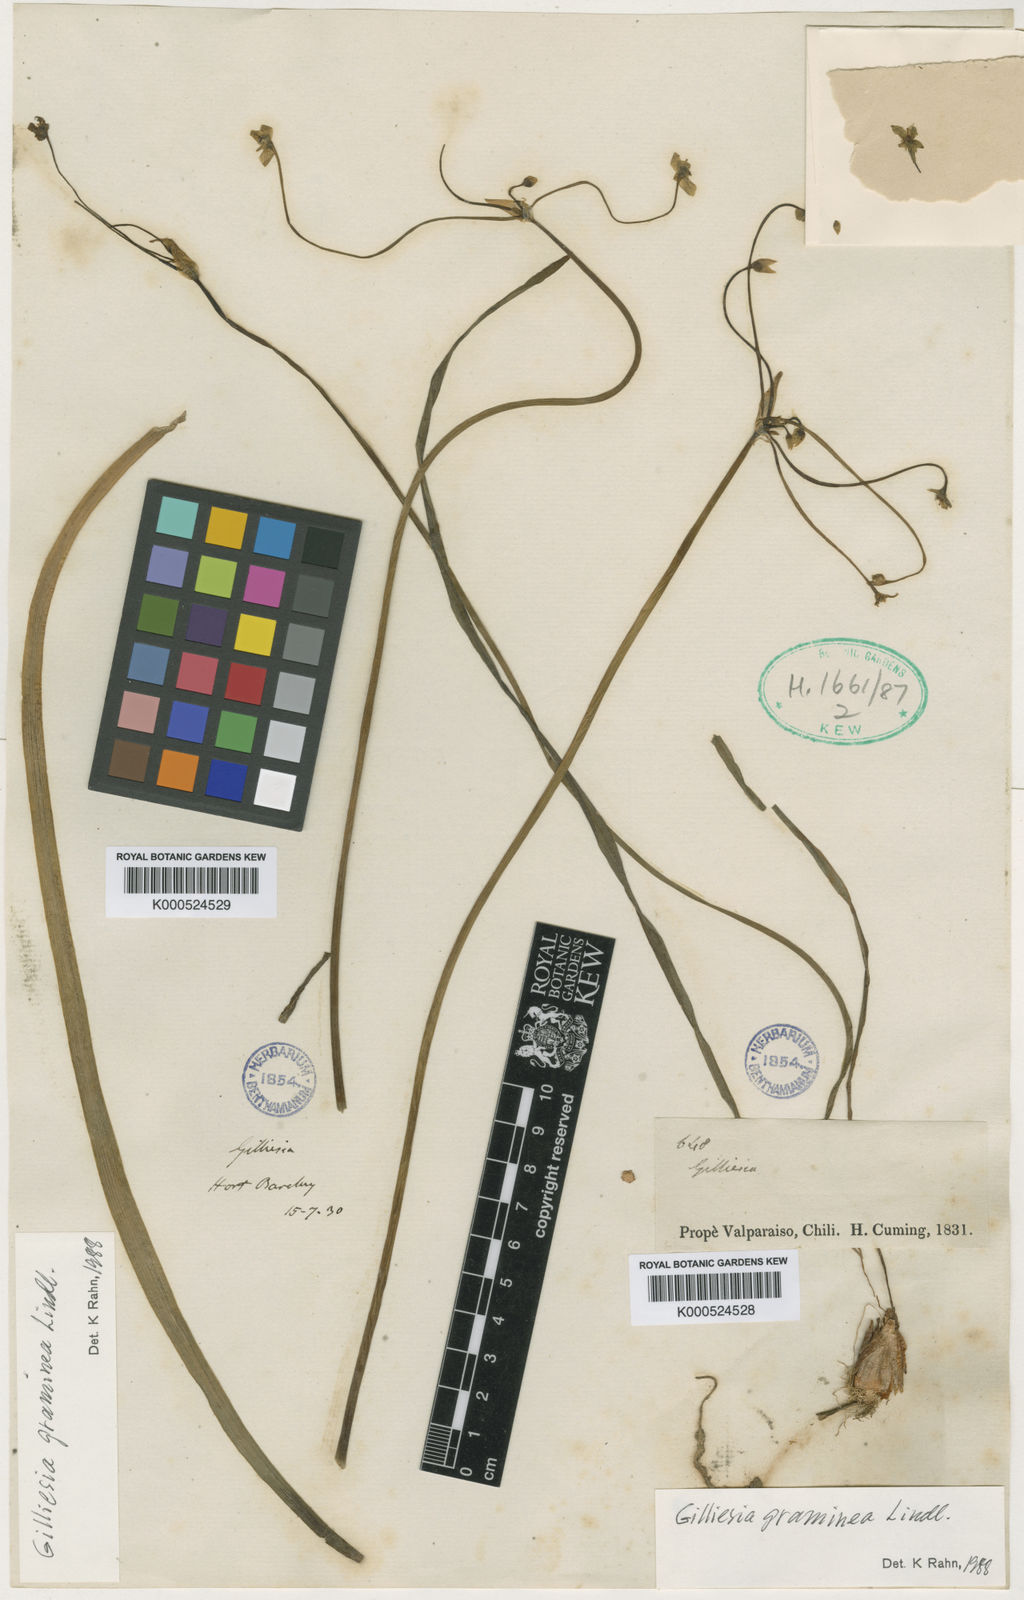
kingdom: Plantae
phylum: Tracheophyta
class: Liliopsida
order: Asparagales
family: Amaryllidaceae
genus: Gilliesia
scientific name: Gilliesia graminea
